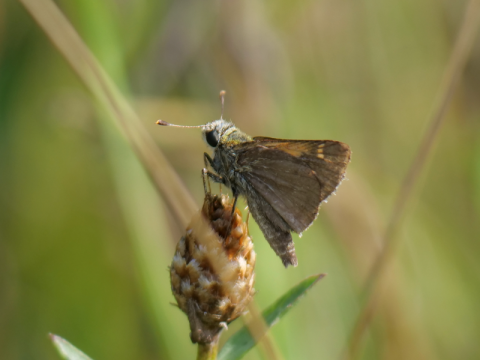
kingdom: Animalia
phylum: Arthropoda
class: Insecta
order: Lepidoptera
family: Hesperiidae
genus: Polites
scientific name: Polites themistocles
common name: Tawny-edged Skipper
